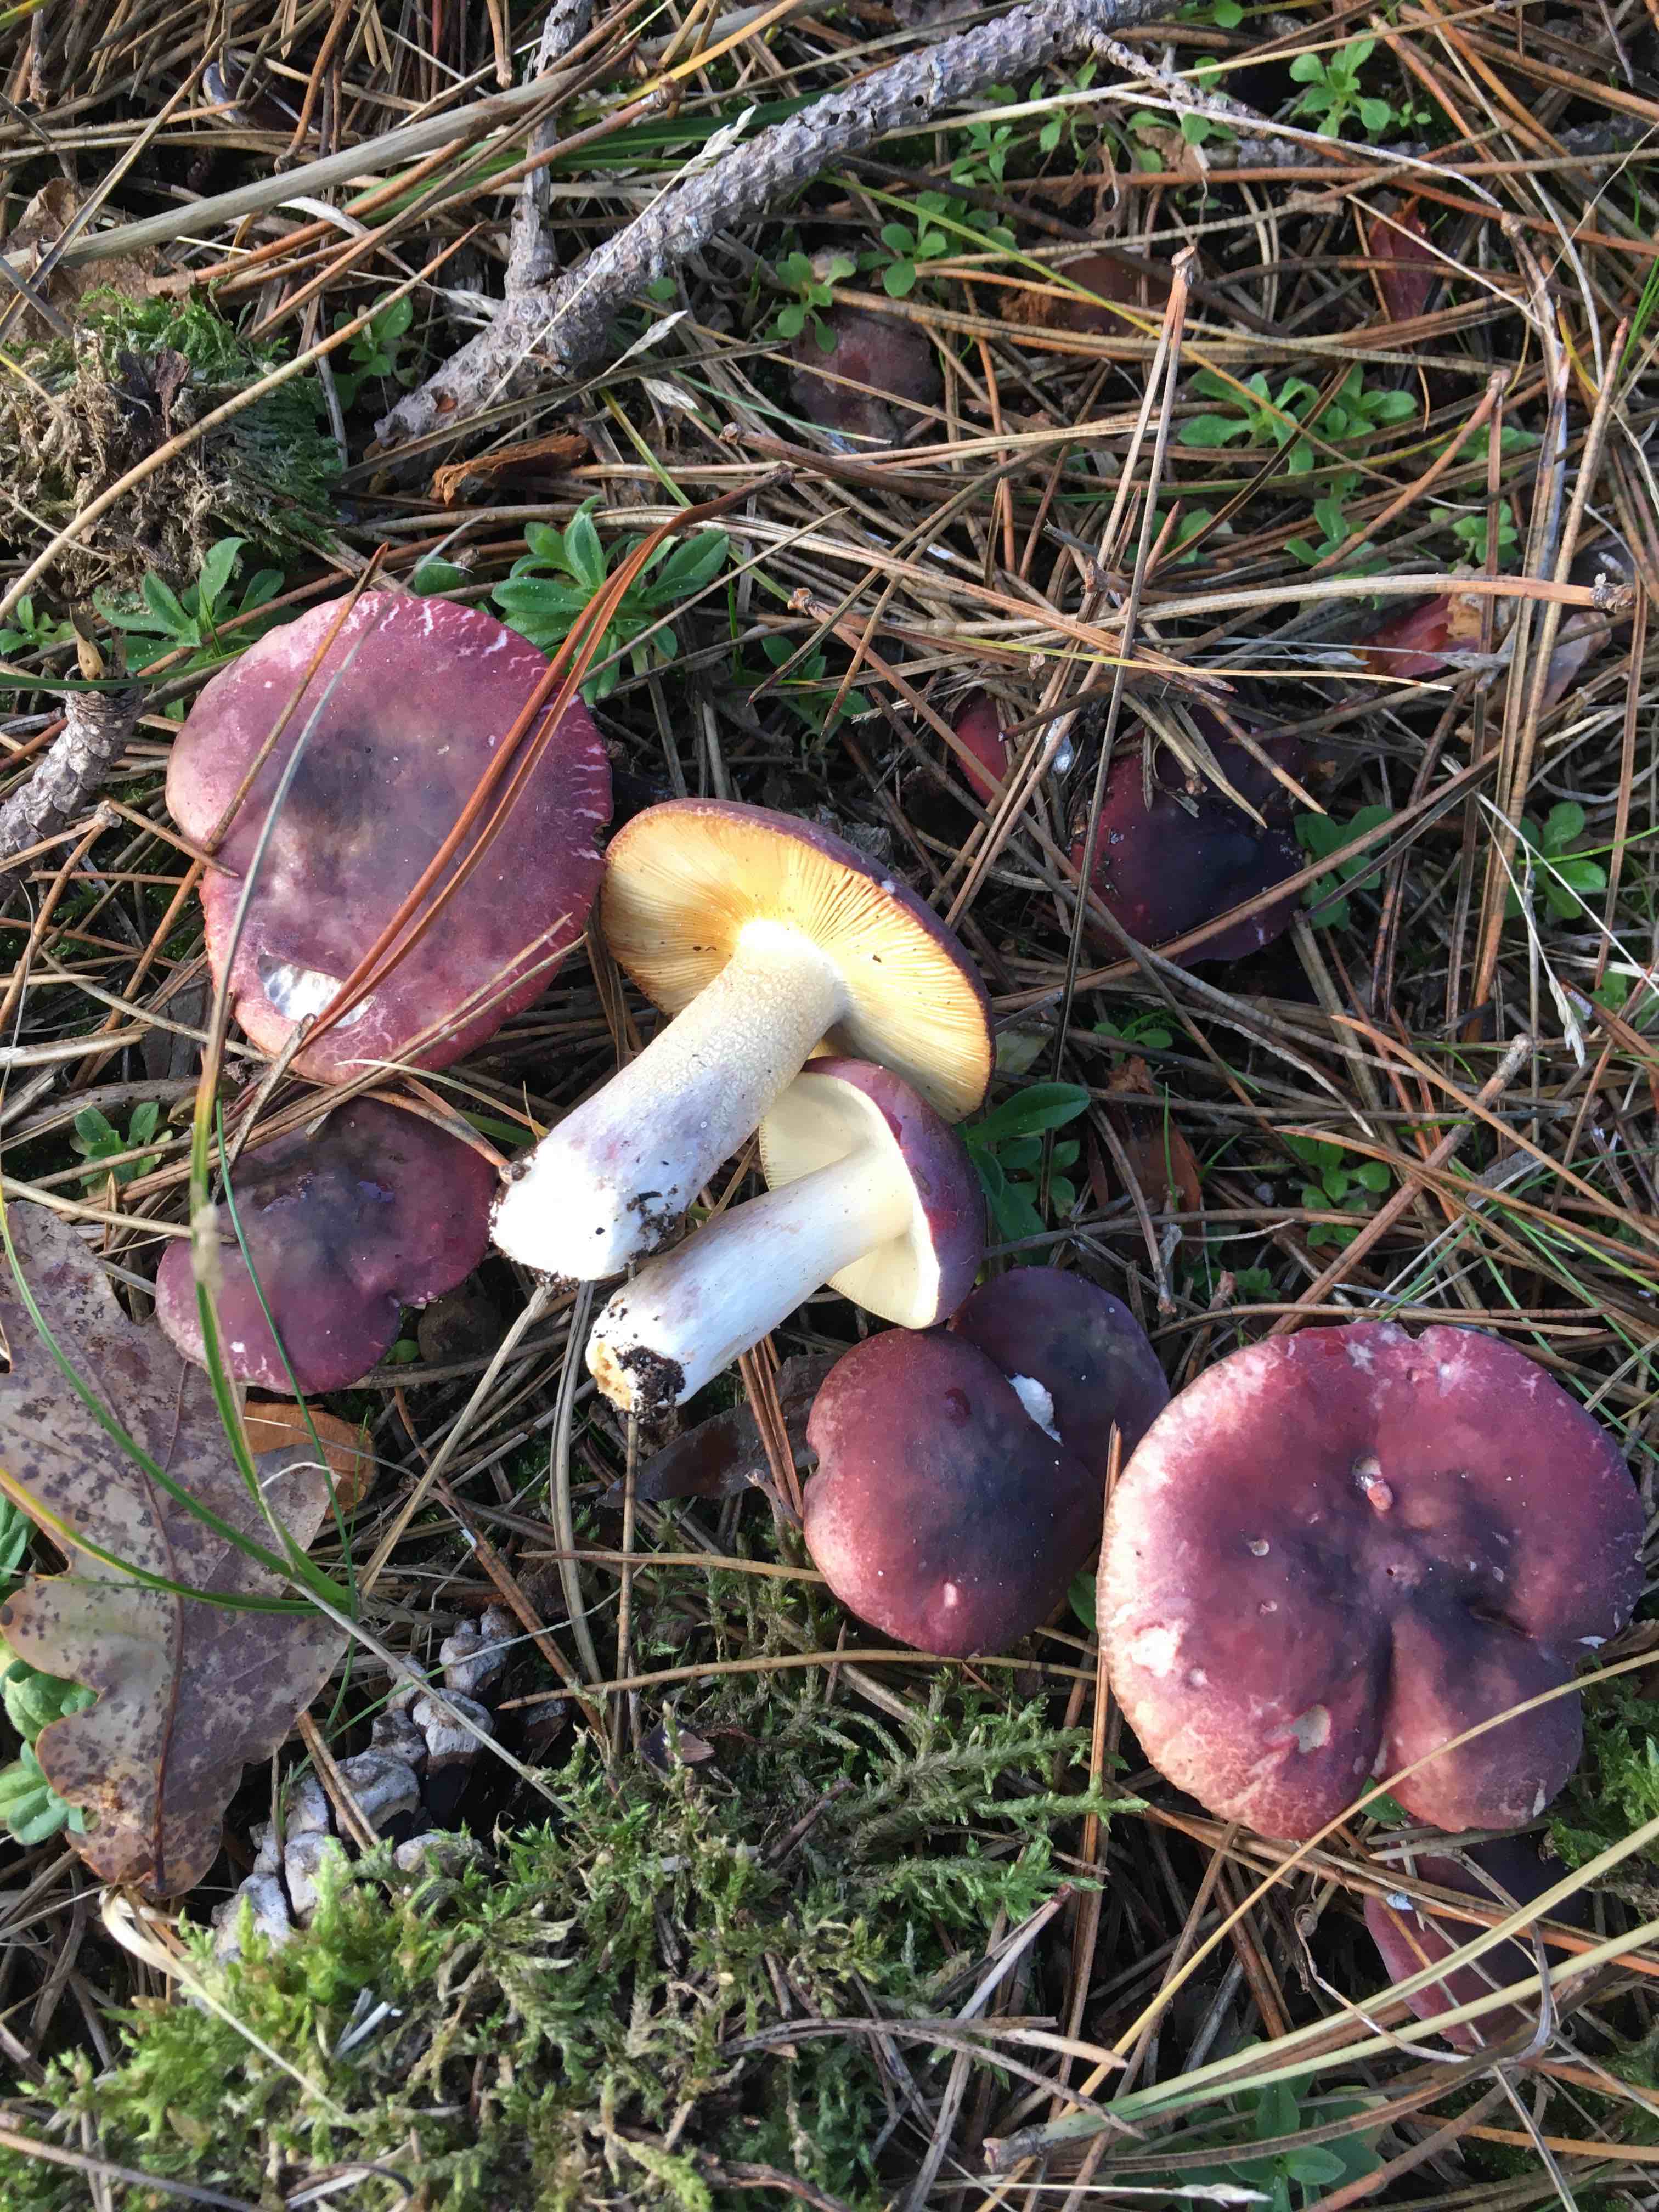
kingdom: Fungi
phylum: Basidiomycota
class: Agaricomycetes
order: Russulales
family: Russulaceae
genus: Russula
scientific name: Russula sardonia
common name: citronbladet skørhat
